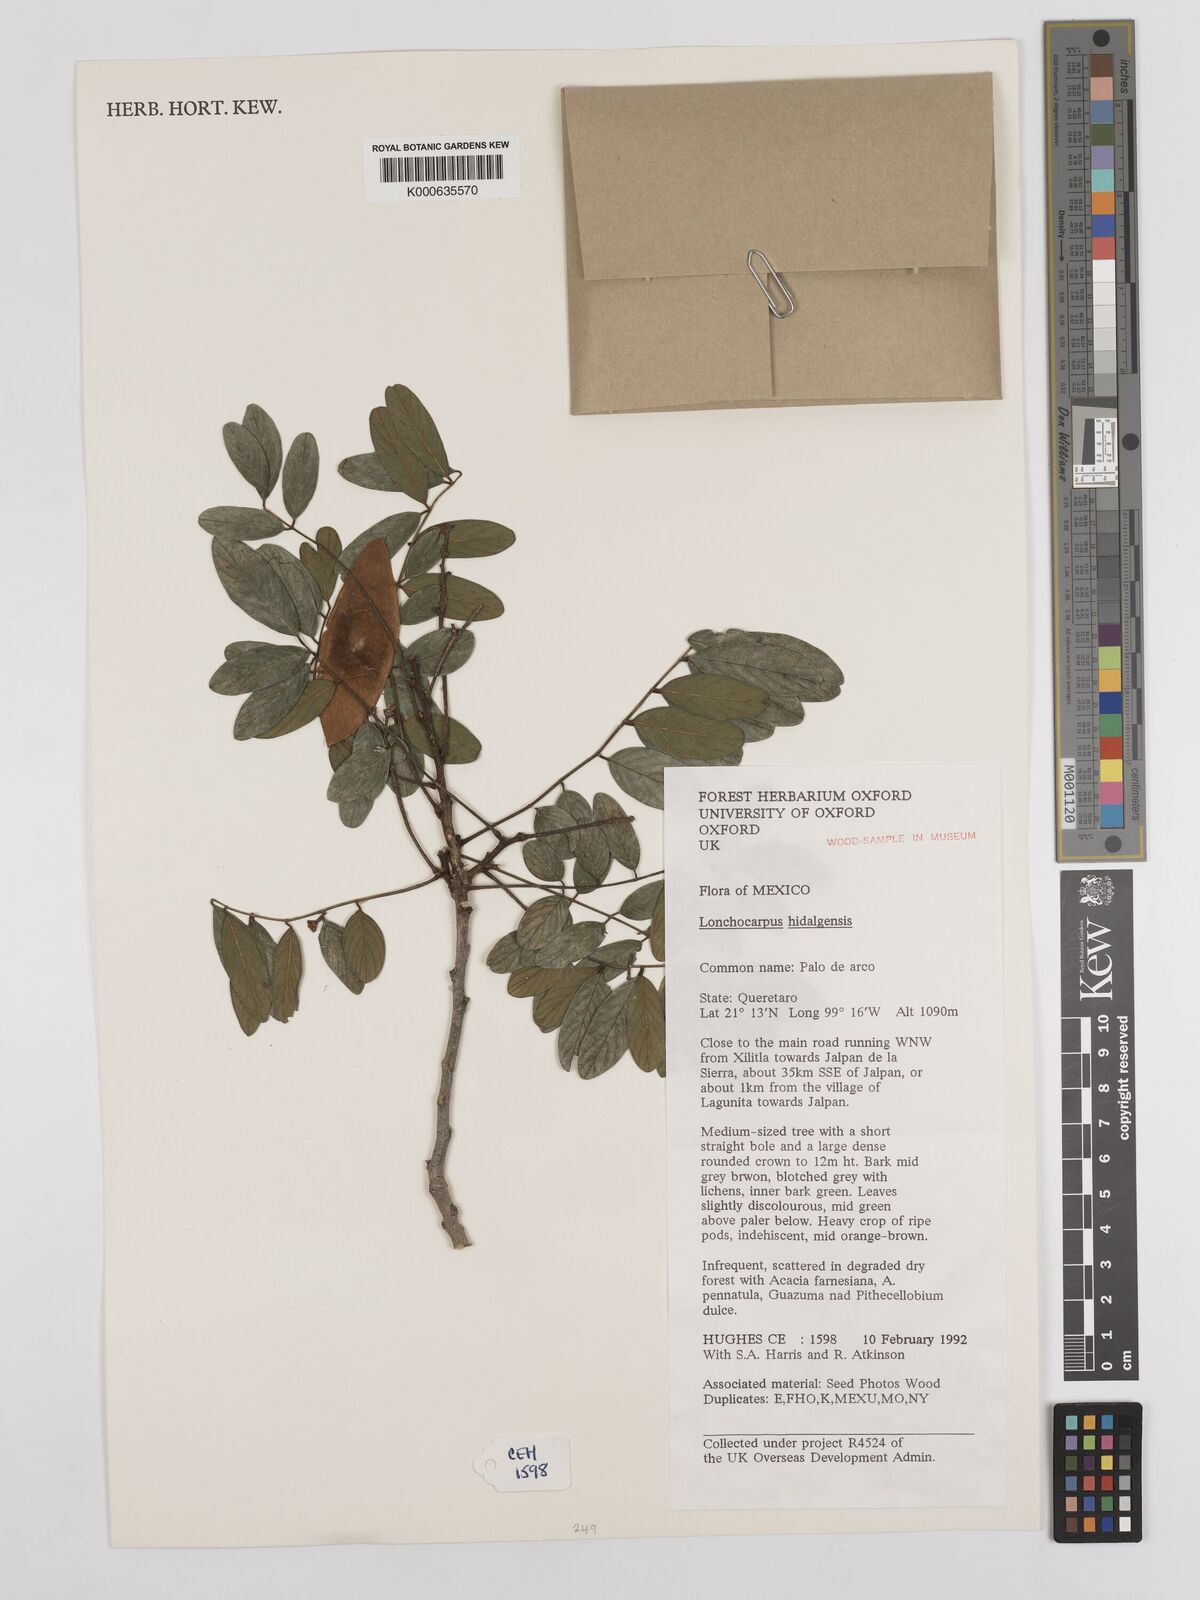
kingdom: Plantae
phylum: Tracheophyta
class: Magnoliopsida
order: Fabales
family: Fabaceae
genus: Lonchocarpus
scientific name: Lonchocarpus hidalgensis
